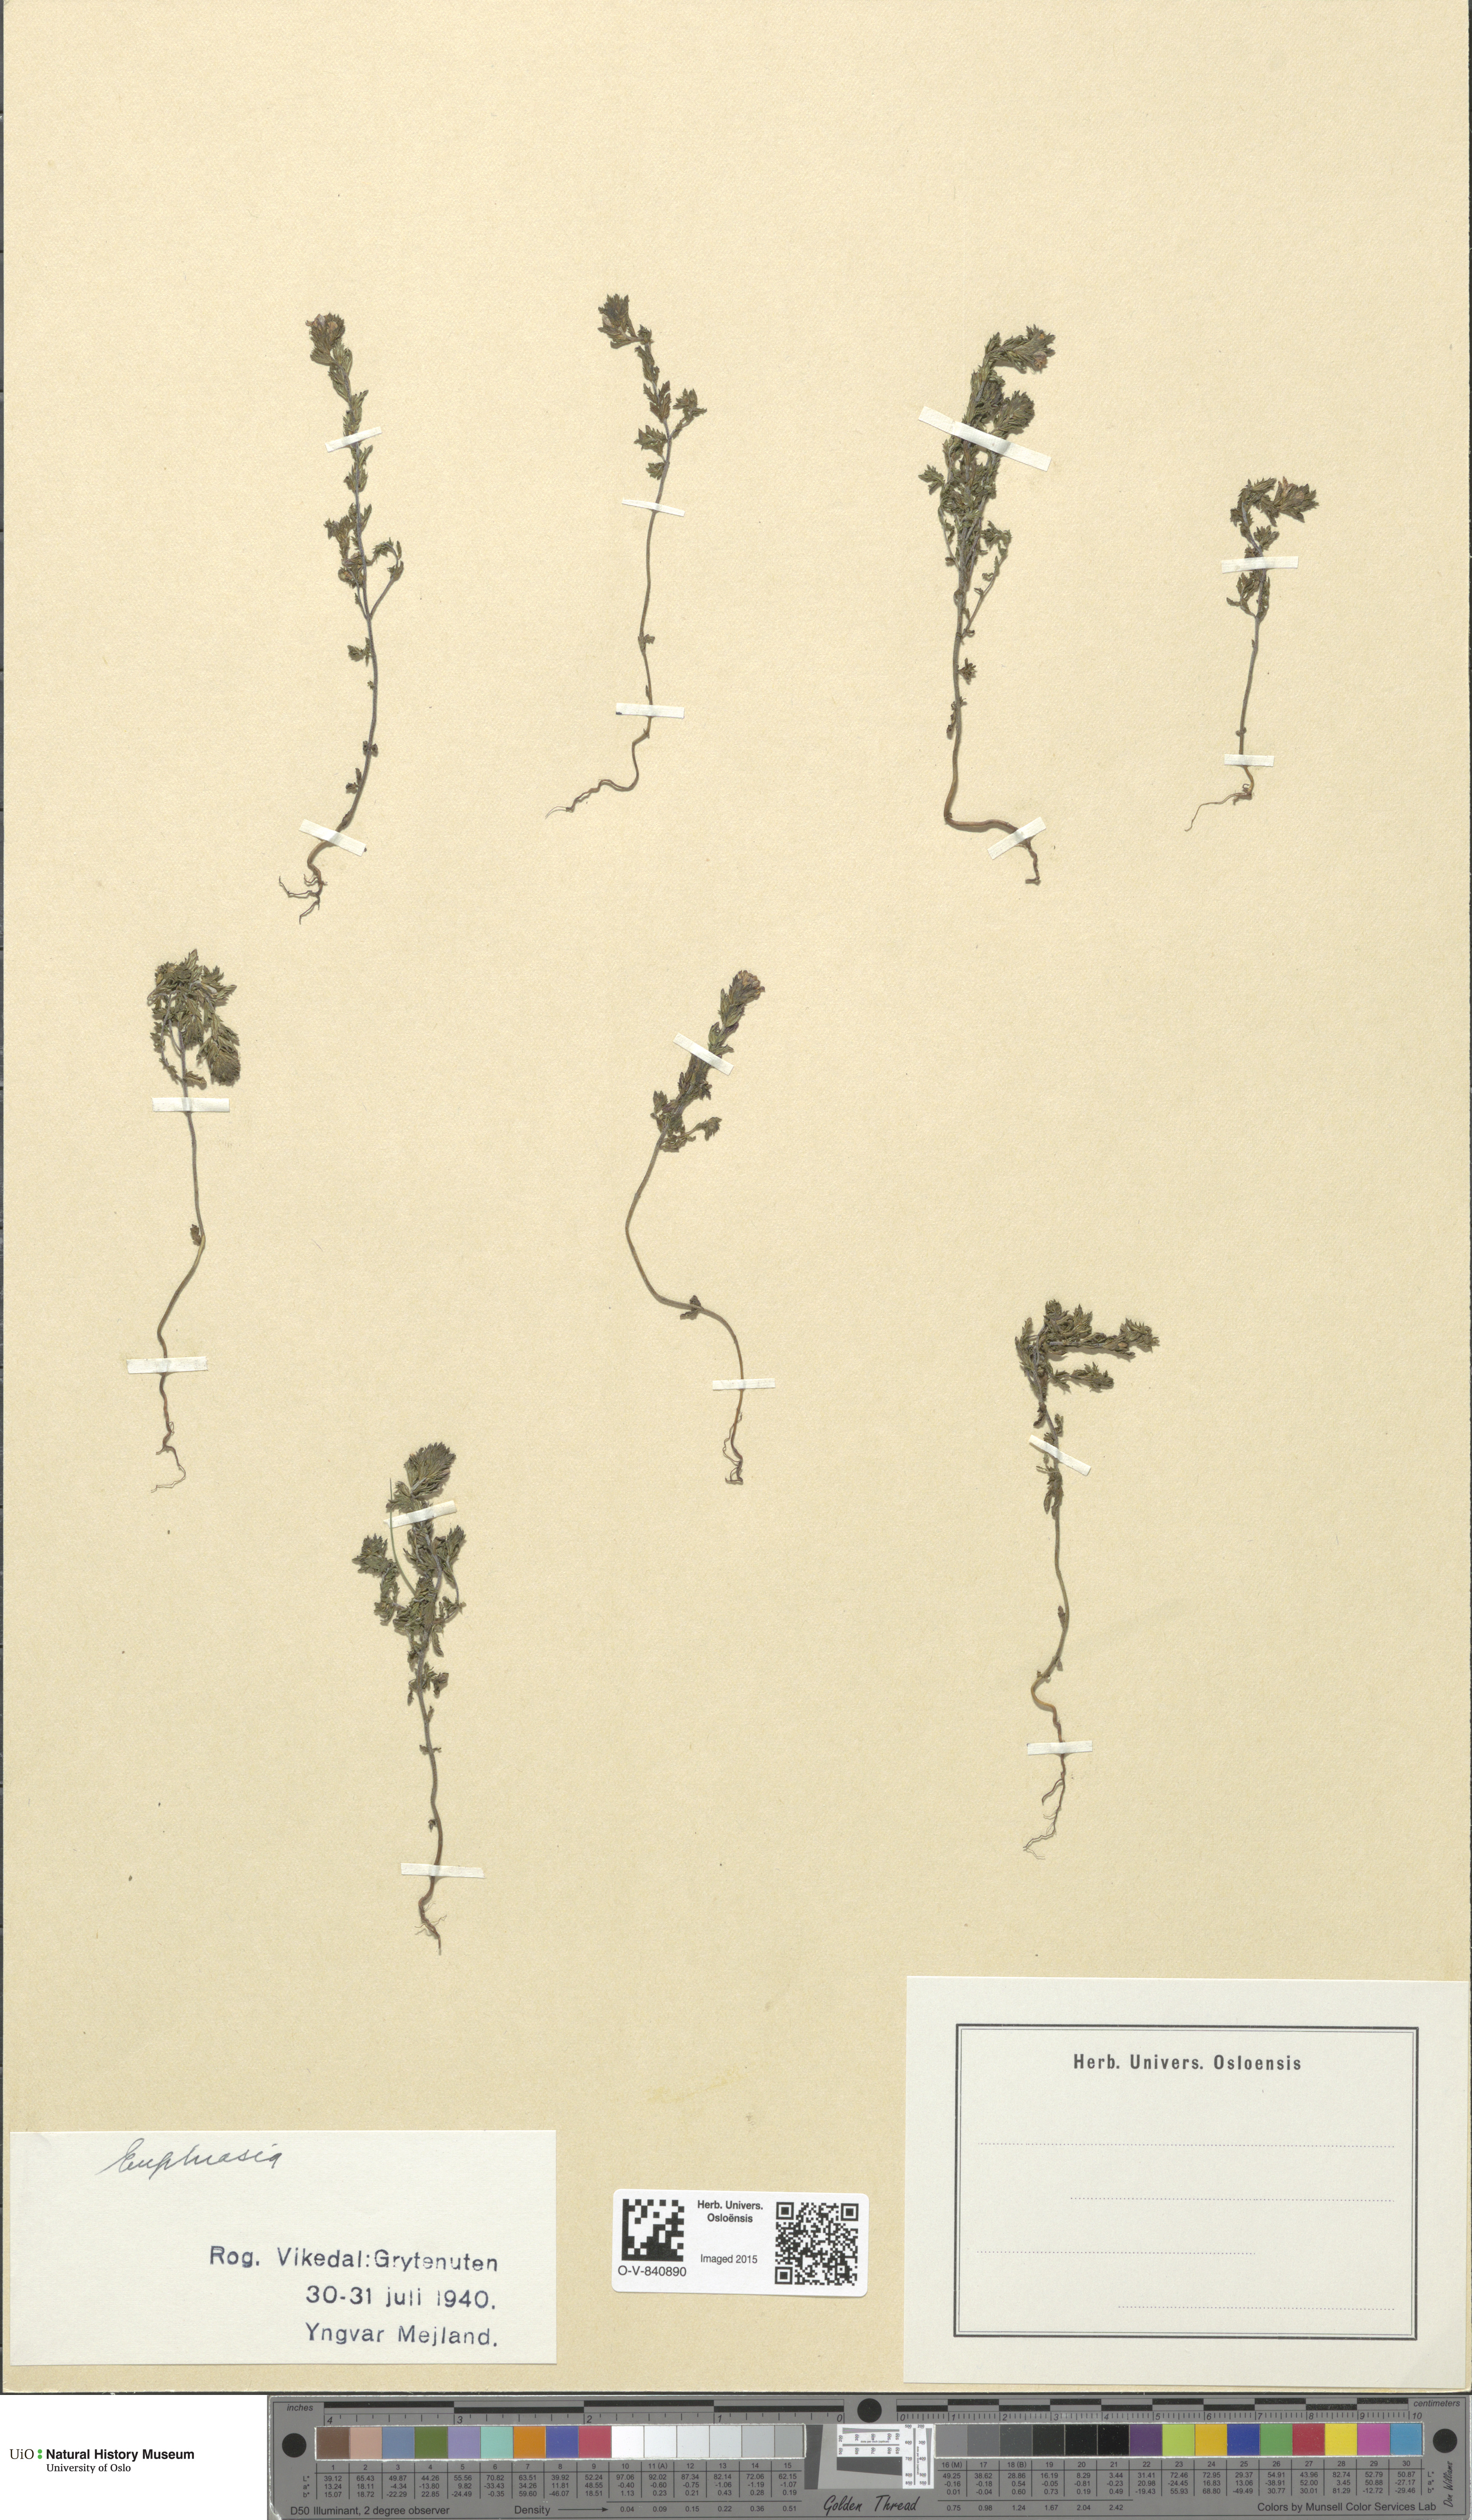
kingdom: Plantae
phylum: Tracheophyta
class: Magnoliopsida
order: Lamiales
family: Orobanchaceae
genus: Euphrasia
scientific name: Euphrasia
